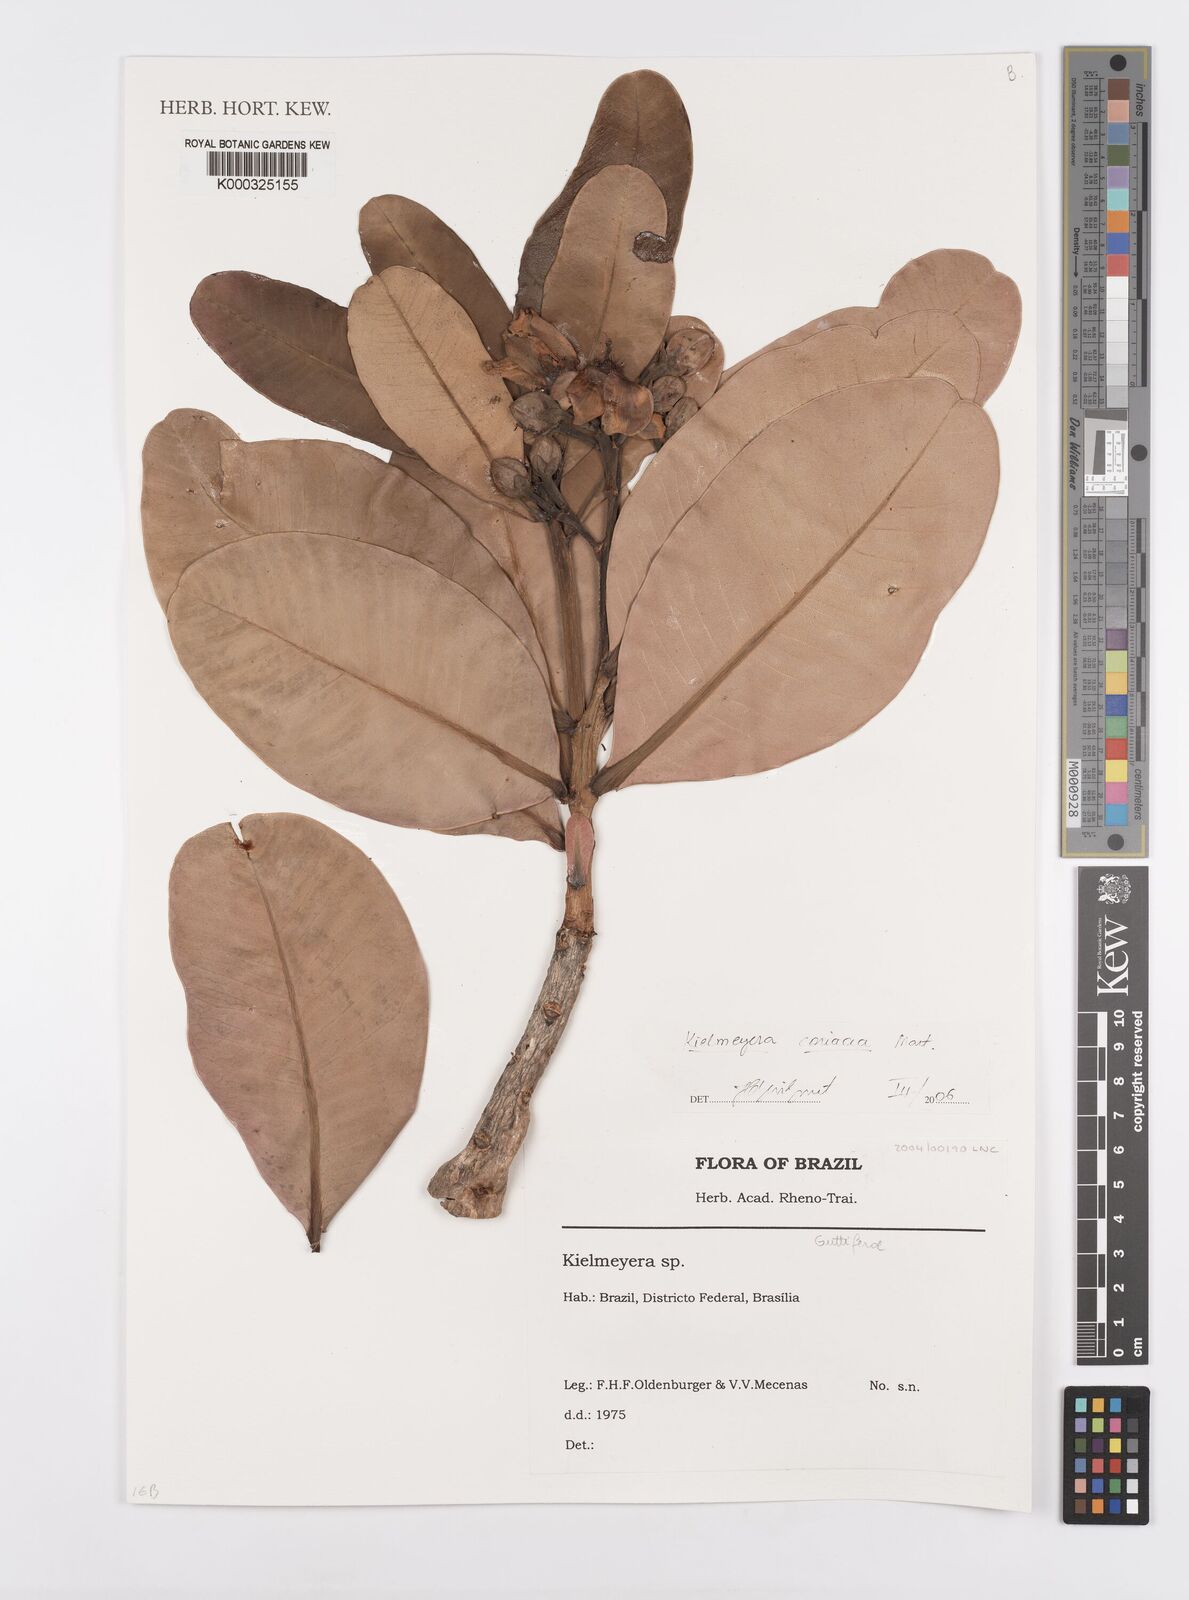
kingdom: Plantae
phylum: Tracheophyta
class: Magnoliopsida
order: Malpighiales
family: Calophyllaceae
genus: Kielmeyera
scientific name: Kielmeyera coriacea
